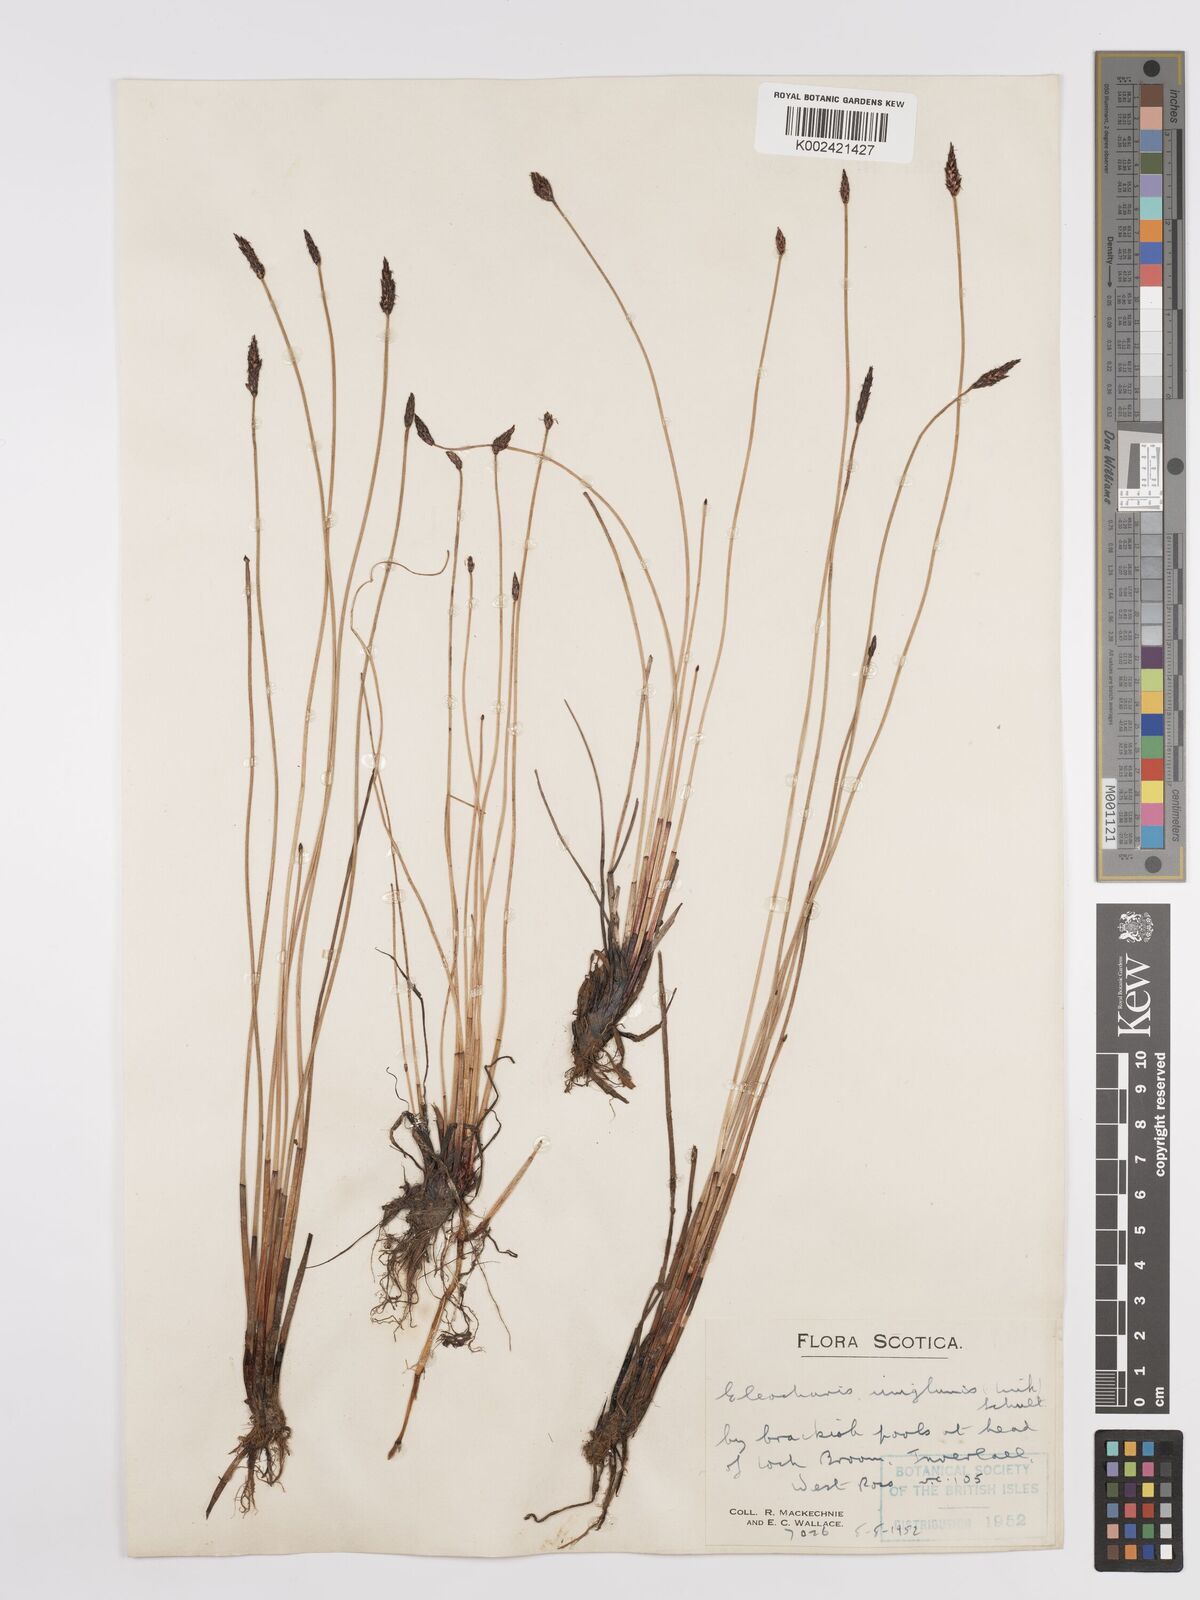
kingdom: Plantae
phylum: Tracheophyta
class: Liliopsida
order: Poales
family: Cyperaceae
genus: Eleocharis
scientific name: Eleocharis uniglumis
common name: Slender spike-rush
